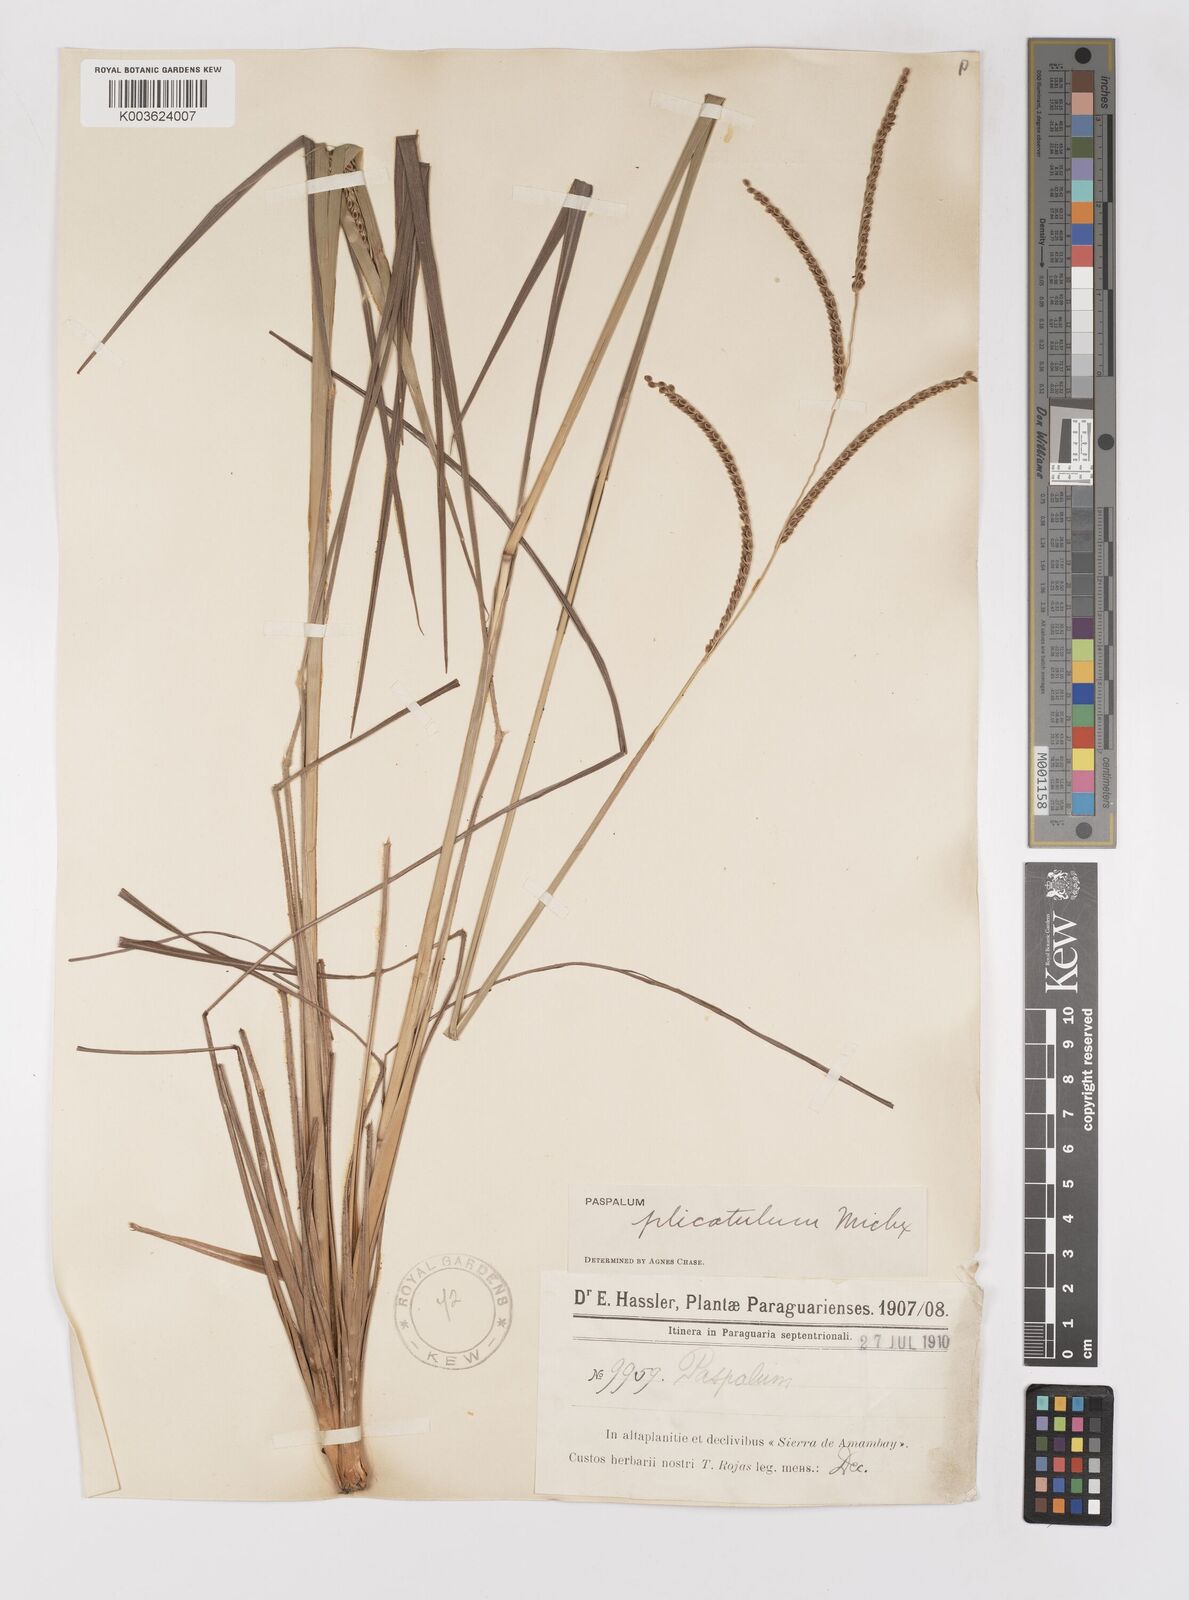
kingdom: Plantae
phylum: Tracheophyta
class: Liliopsida
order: Poales
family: Poaceae
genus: Paspalum
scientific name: Paspalum glaucescens
